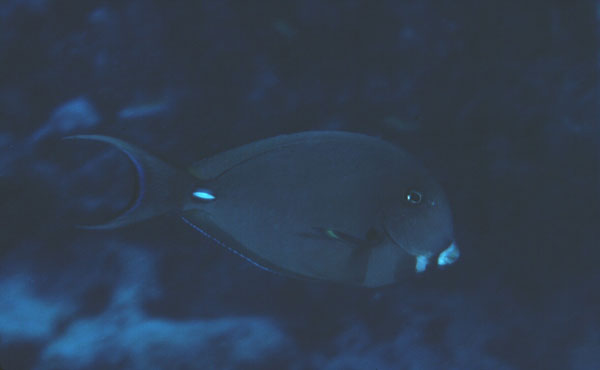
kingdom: Animalia
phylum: Chordata
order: Perciformes
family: Acanthuridae
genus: Acanthurus
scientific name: Acanthurus leucocheilus
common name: Palelipped surgeonfish
